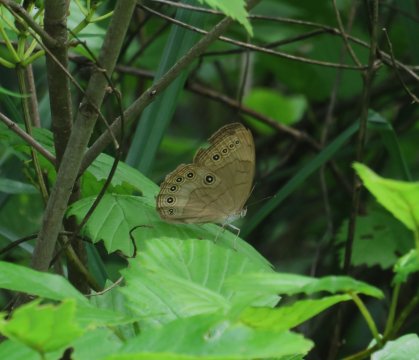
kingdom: Animalia
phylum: Arthropoda
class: Insecta
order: Lepidoptera
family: Nymphalidae
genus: Lethe
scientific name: Lethe eurydice
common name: Appalachian Eyed Brown
